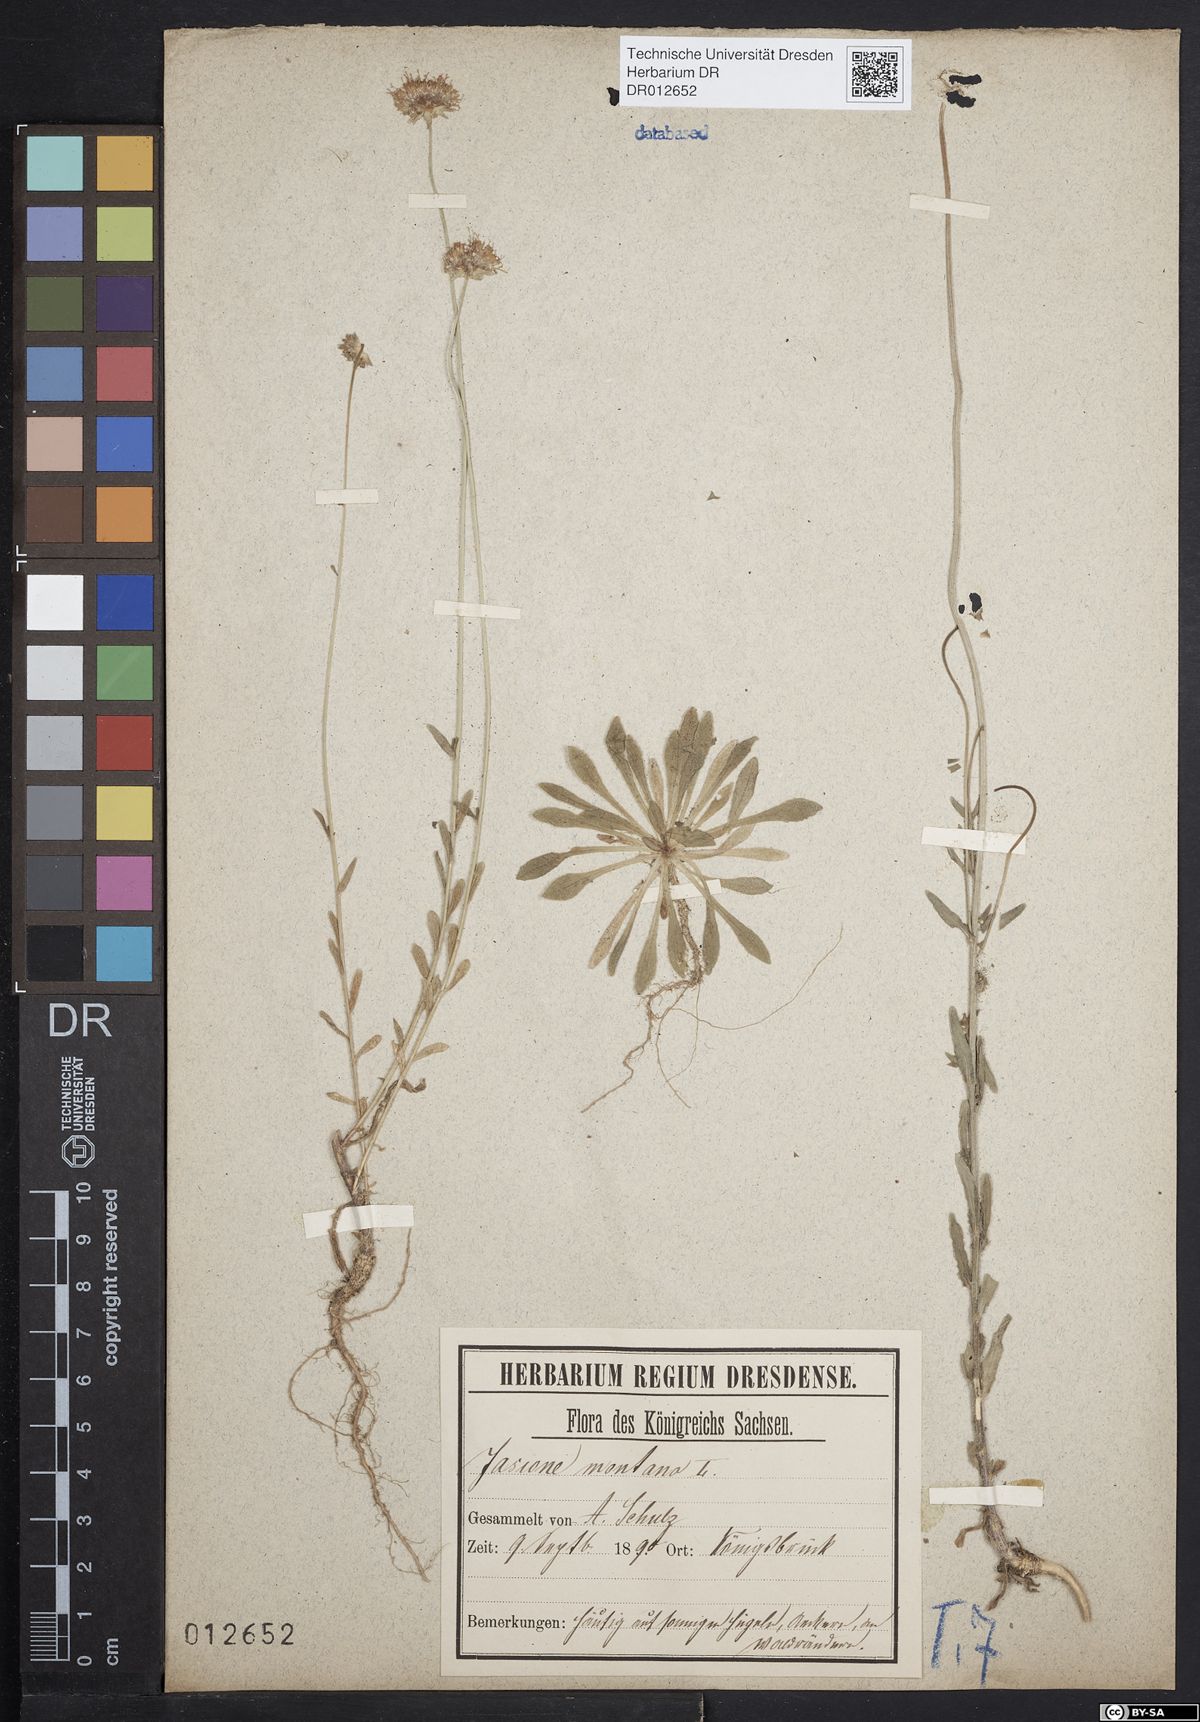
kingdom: Plantae
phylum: Tracheophyta
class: Magnoliopsida
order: Asterales
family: Campanulaceae
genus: Jasione
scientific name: Jasione montana
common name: Sheep's-bit
